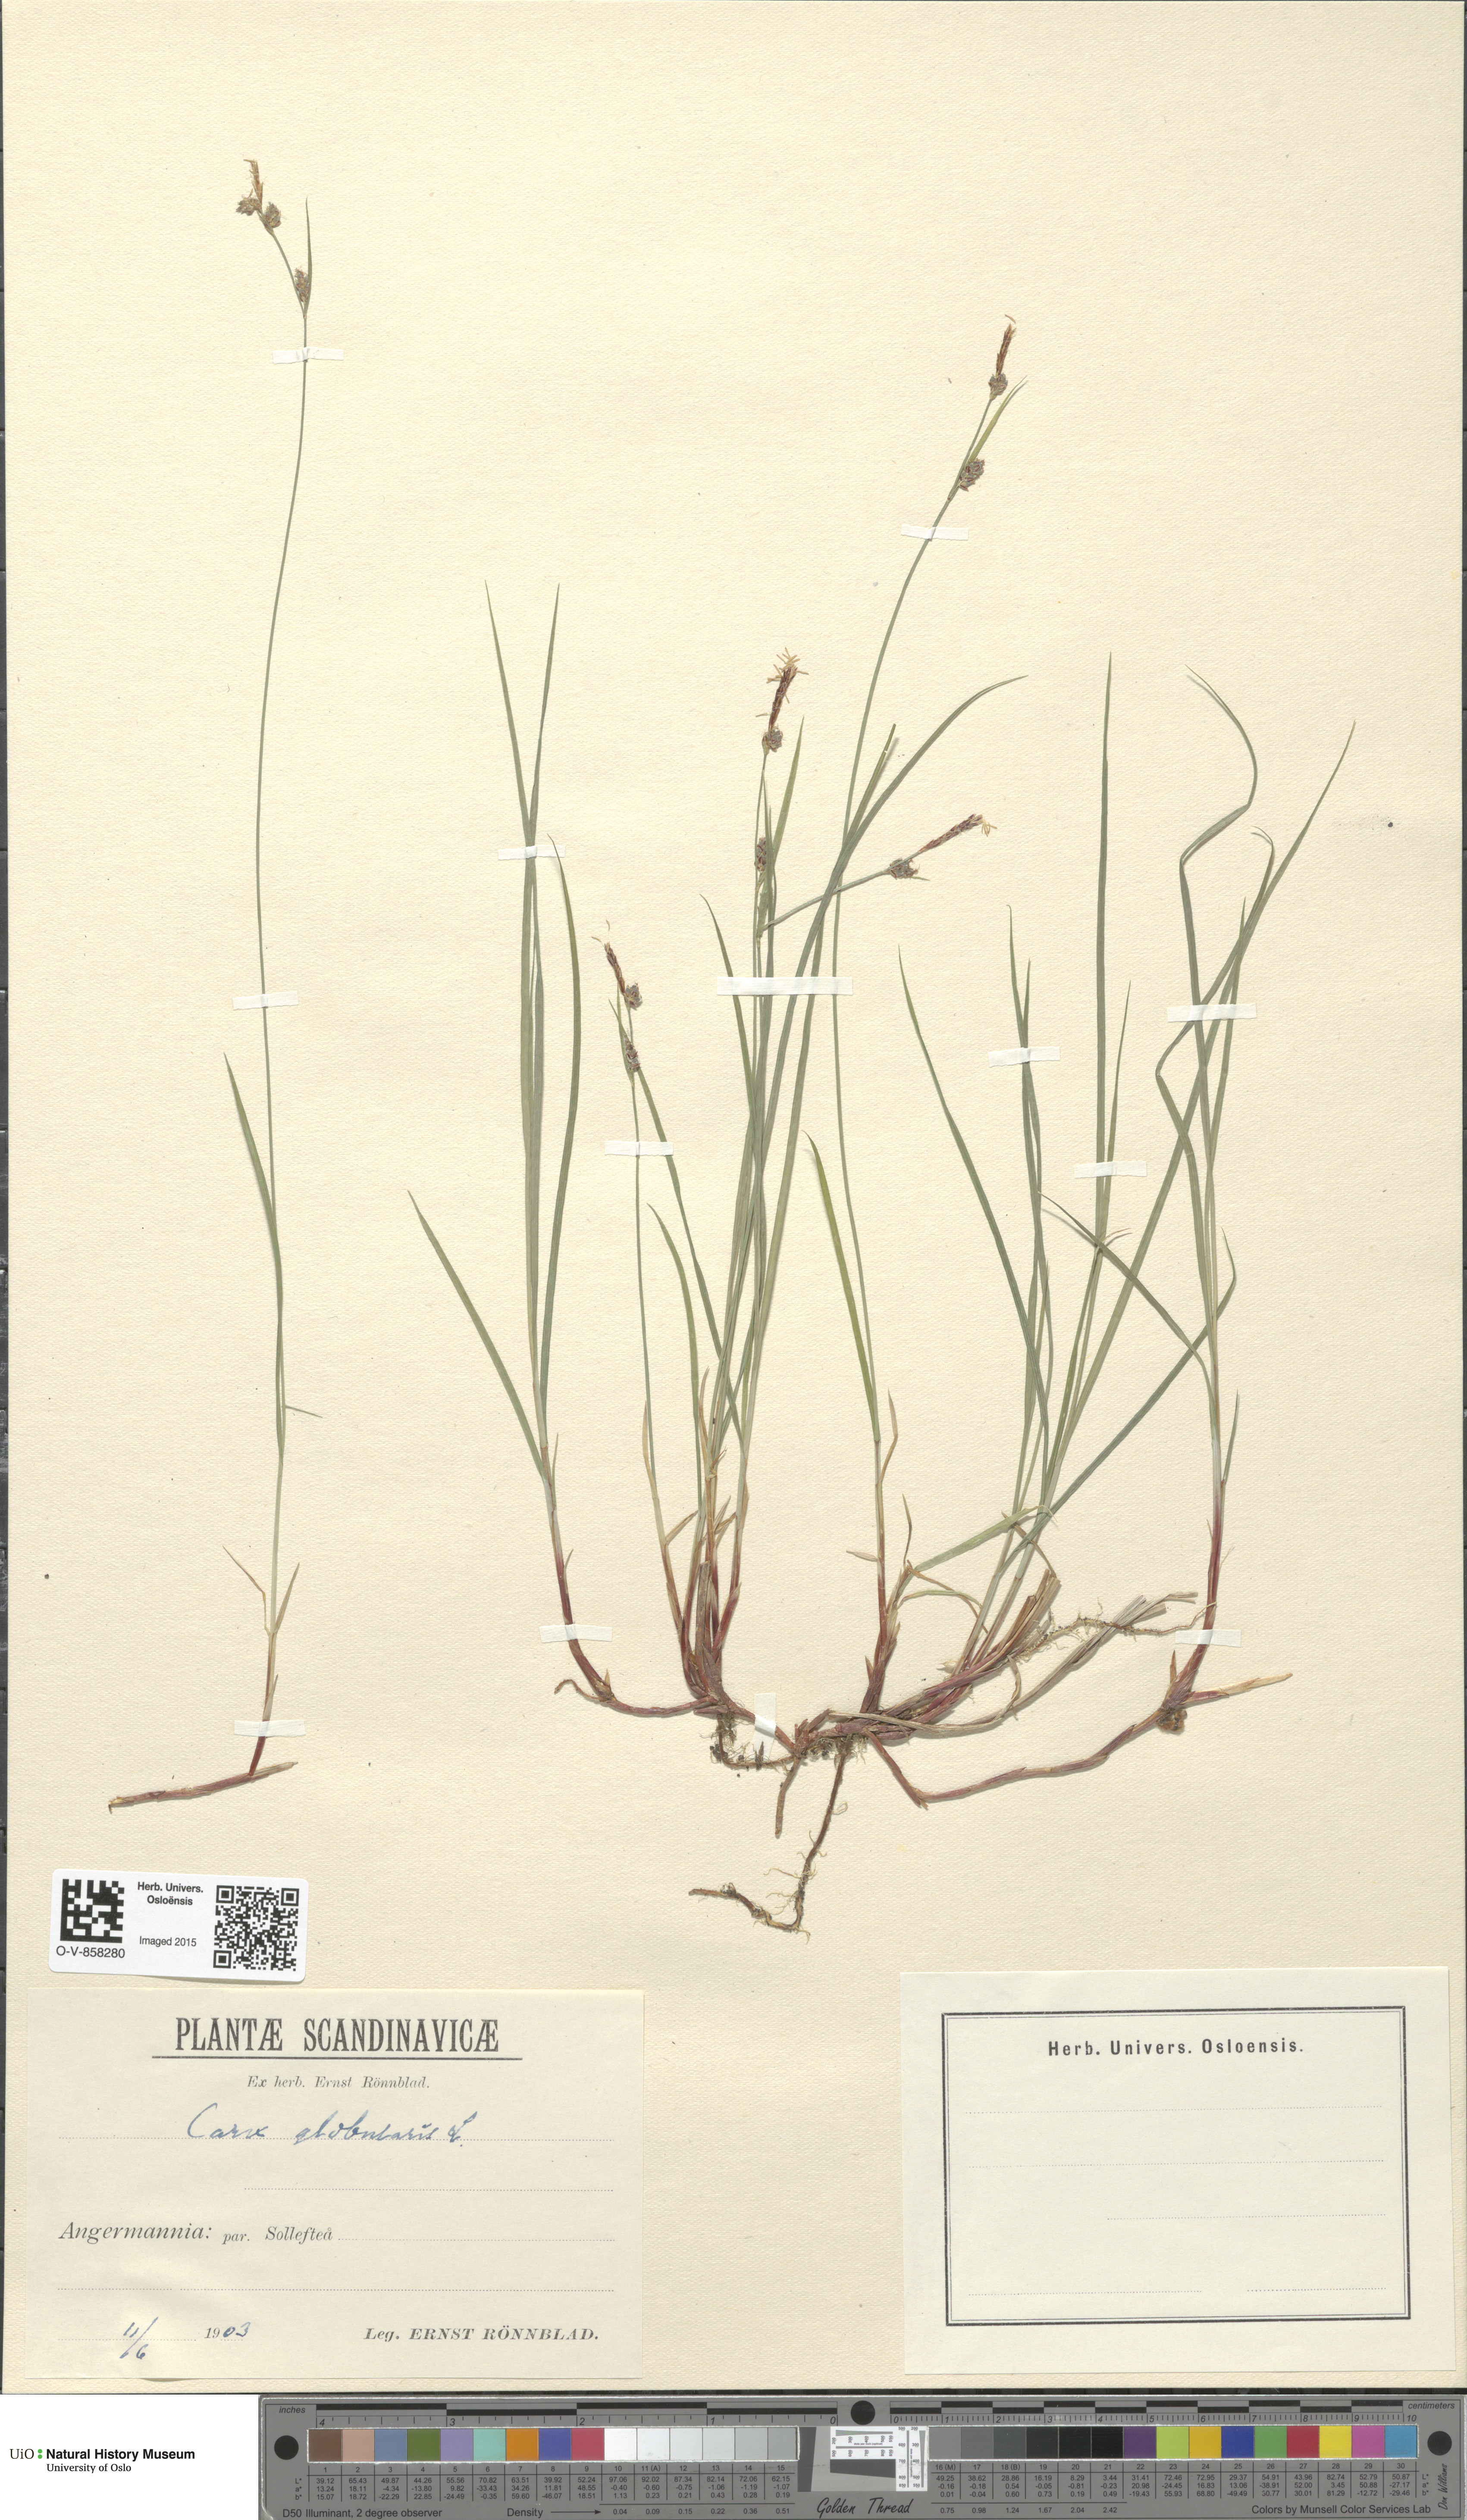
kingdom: Plantae
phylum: Tracheophyta
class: Liliopsida
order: Poales
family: Cyperaceae
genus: Carex
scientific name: Carex globularis
